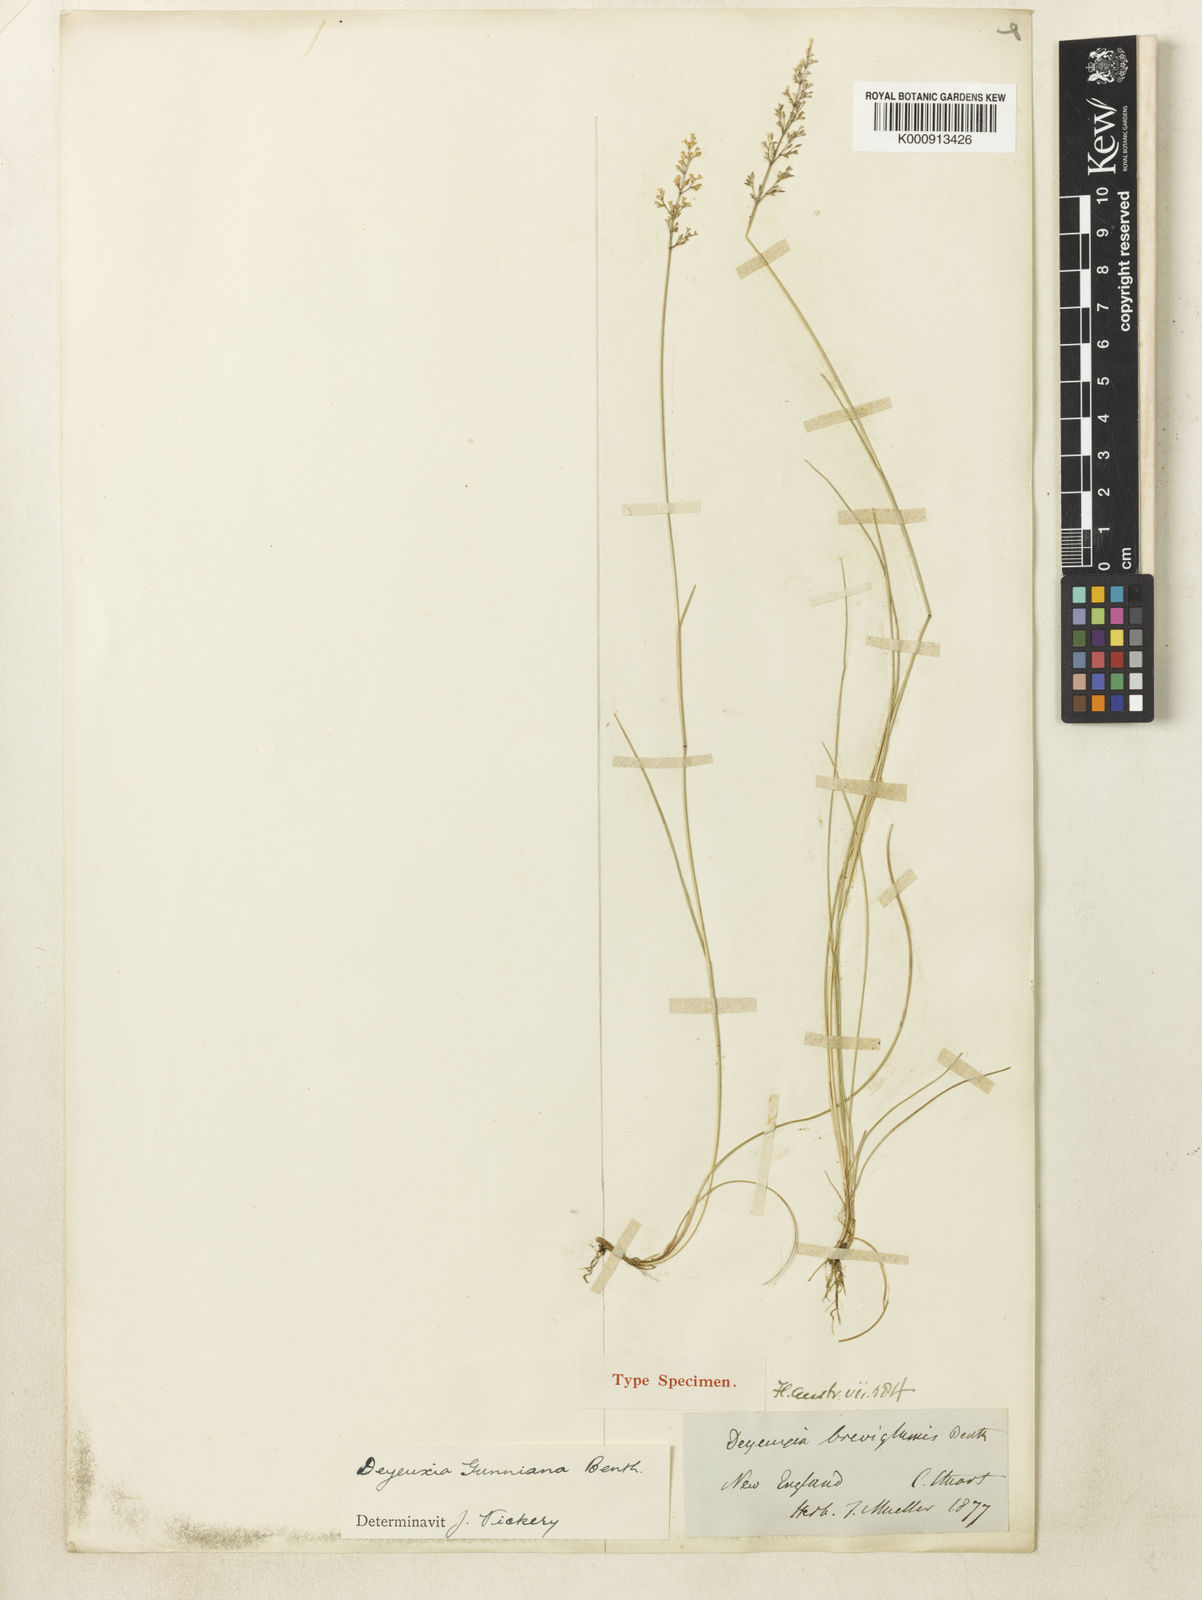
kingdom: Plantae
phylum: Tracheophyta
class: Liliopsida
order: Poales
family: Poaceae
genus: Ancistragrostis
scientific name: Ancistragrostis
